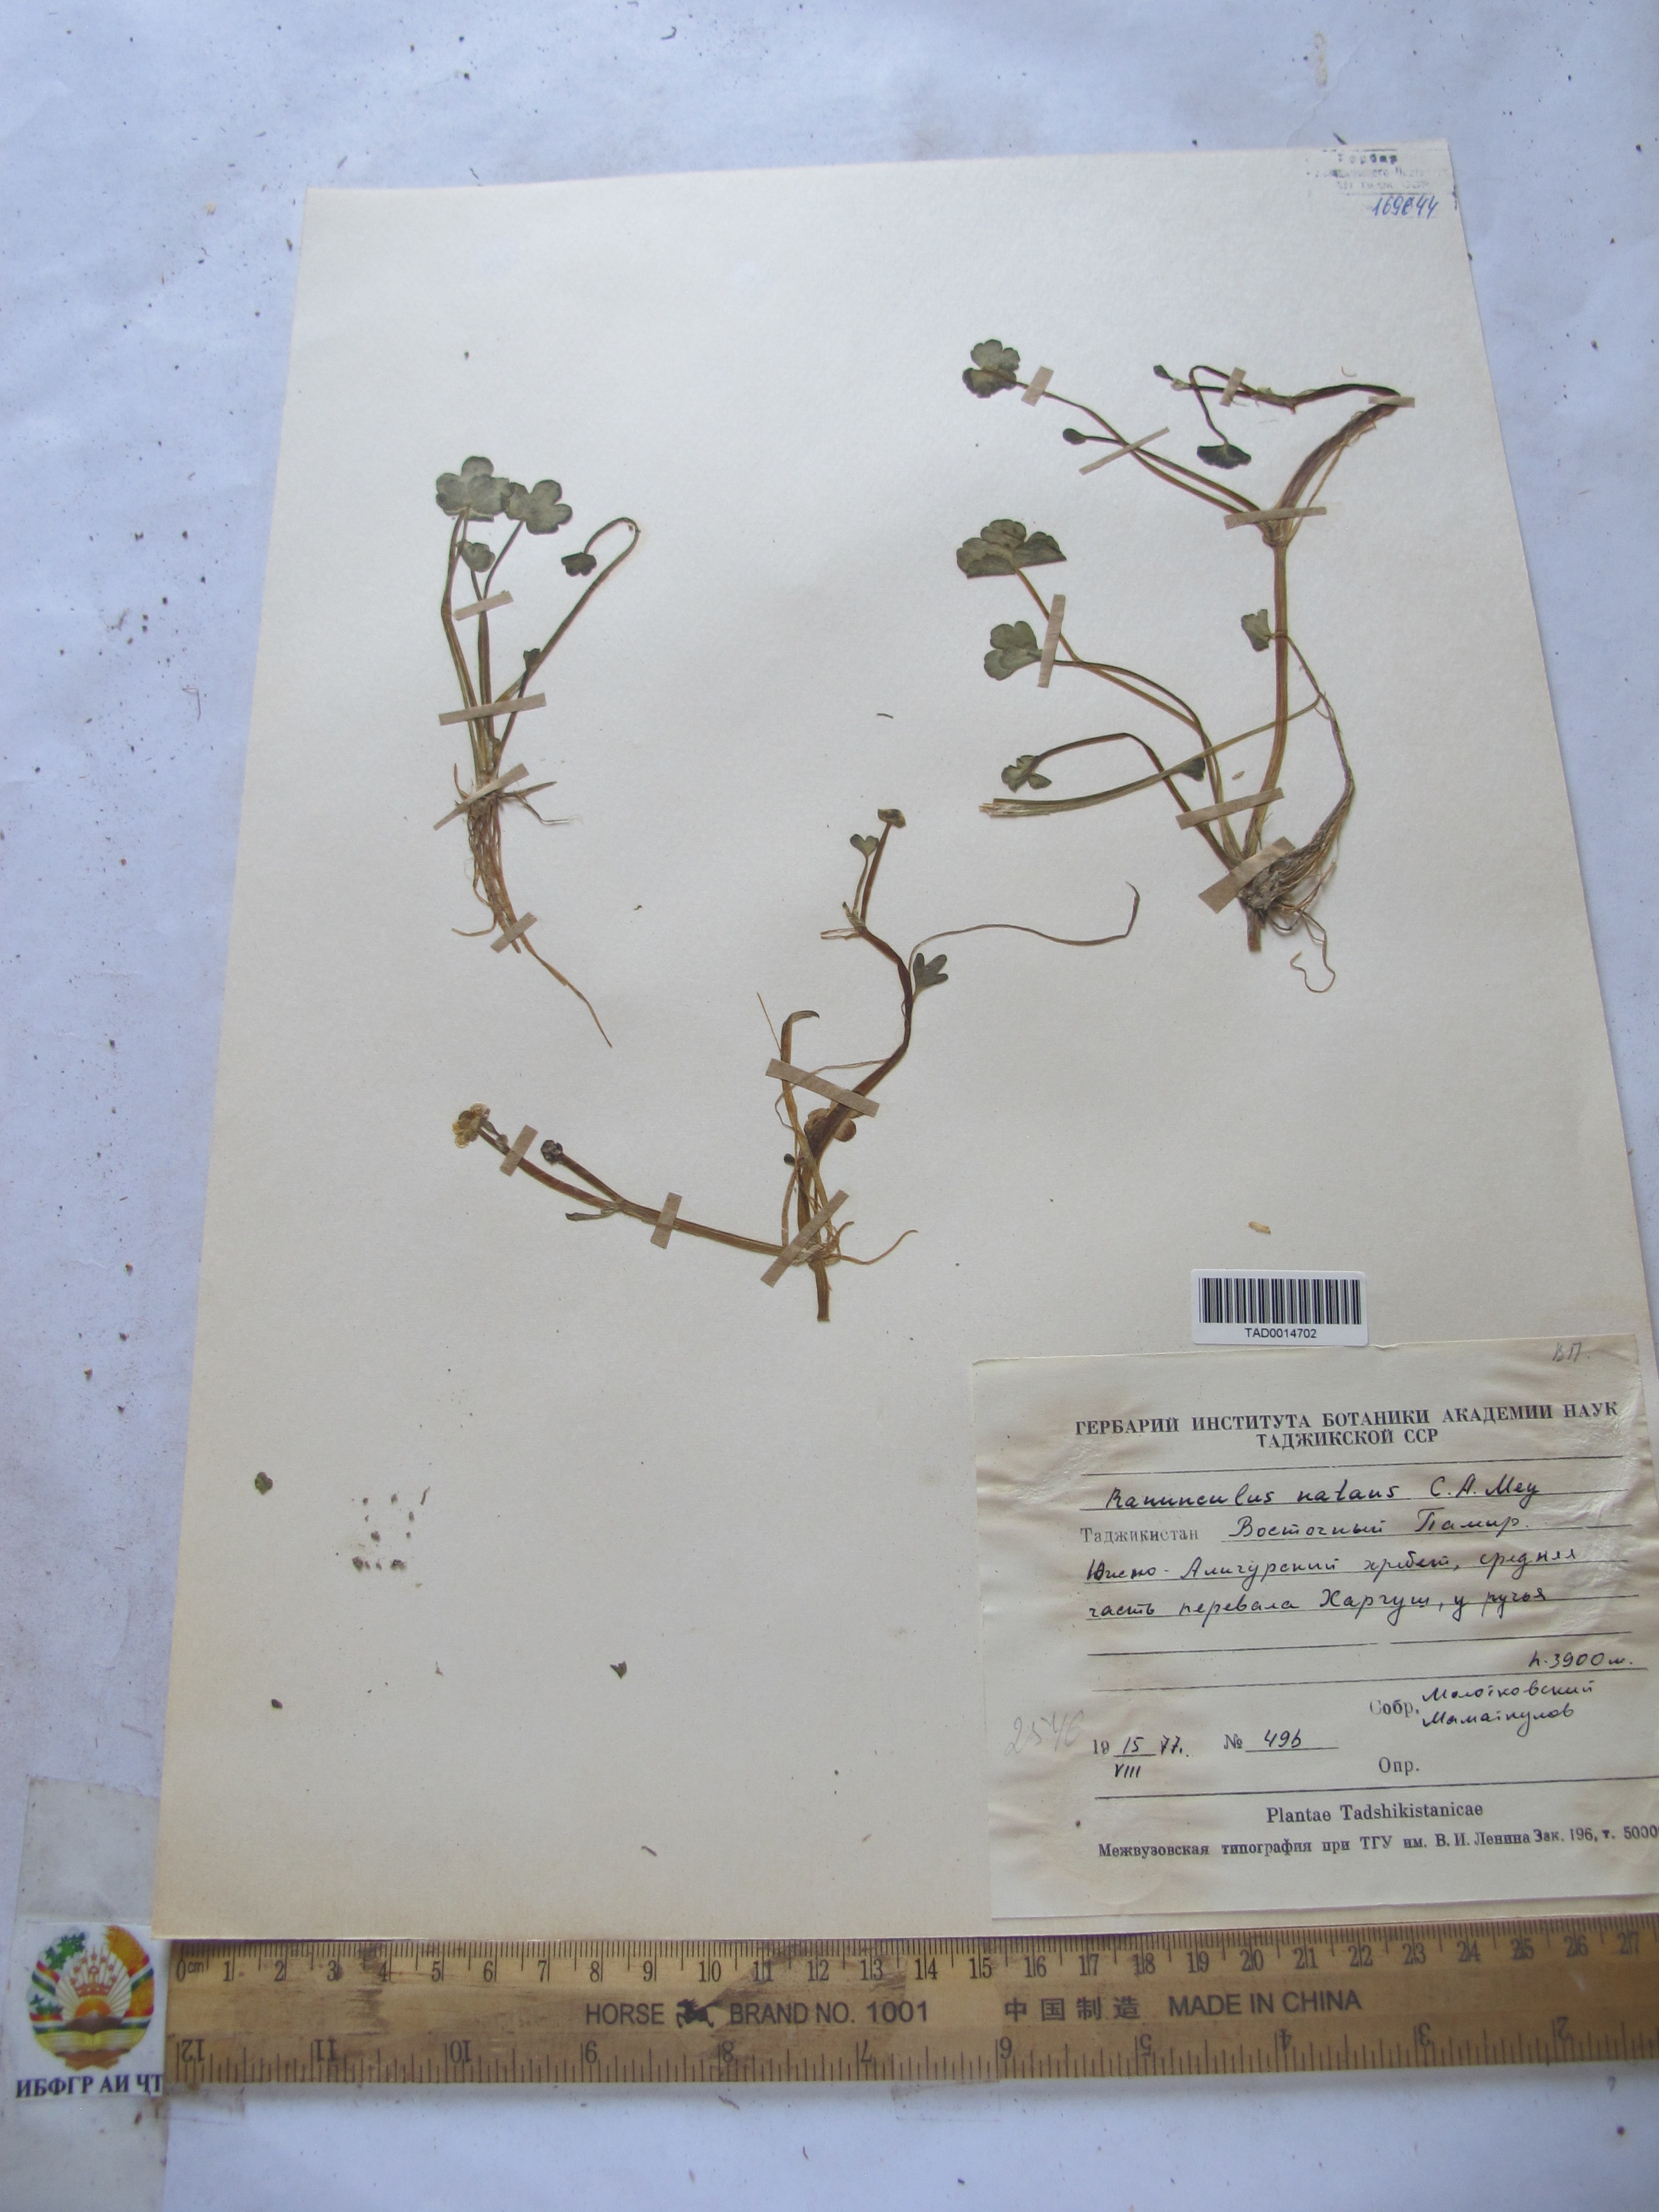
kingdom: Plantae
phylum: Tracheophyta
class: Magnoliopsida
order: Ranunculales
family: Ranunculaceae
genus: Ranunculus
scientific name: Ranunculus natans
